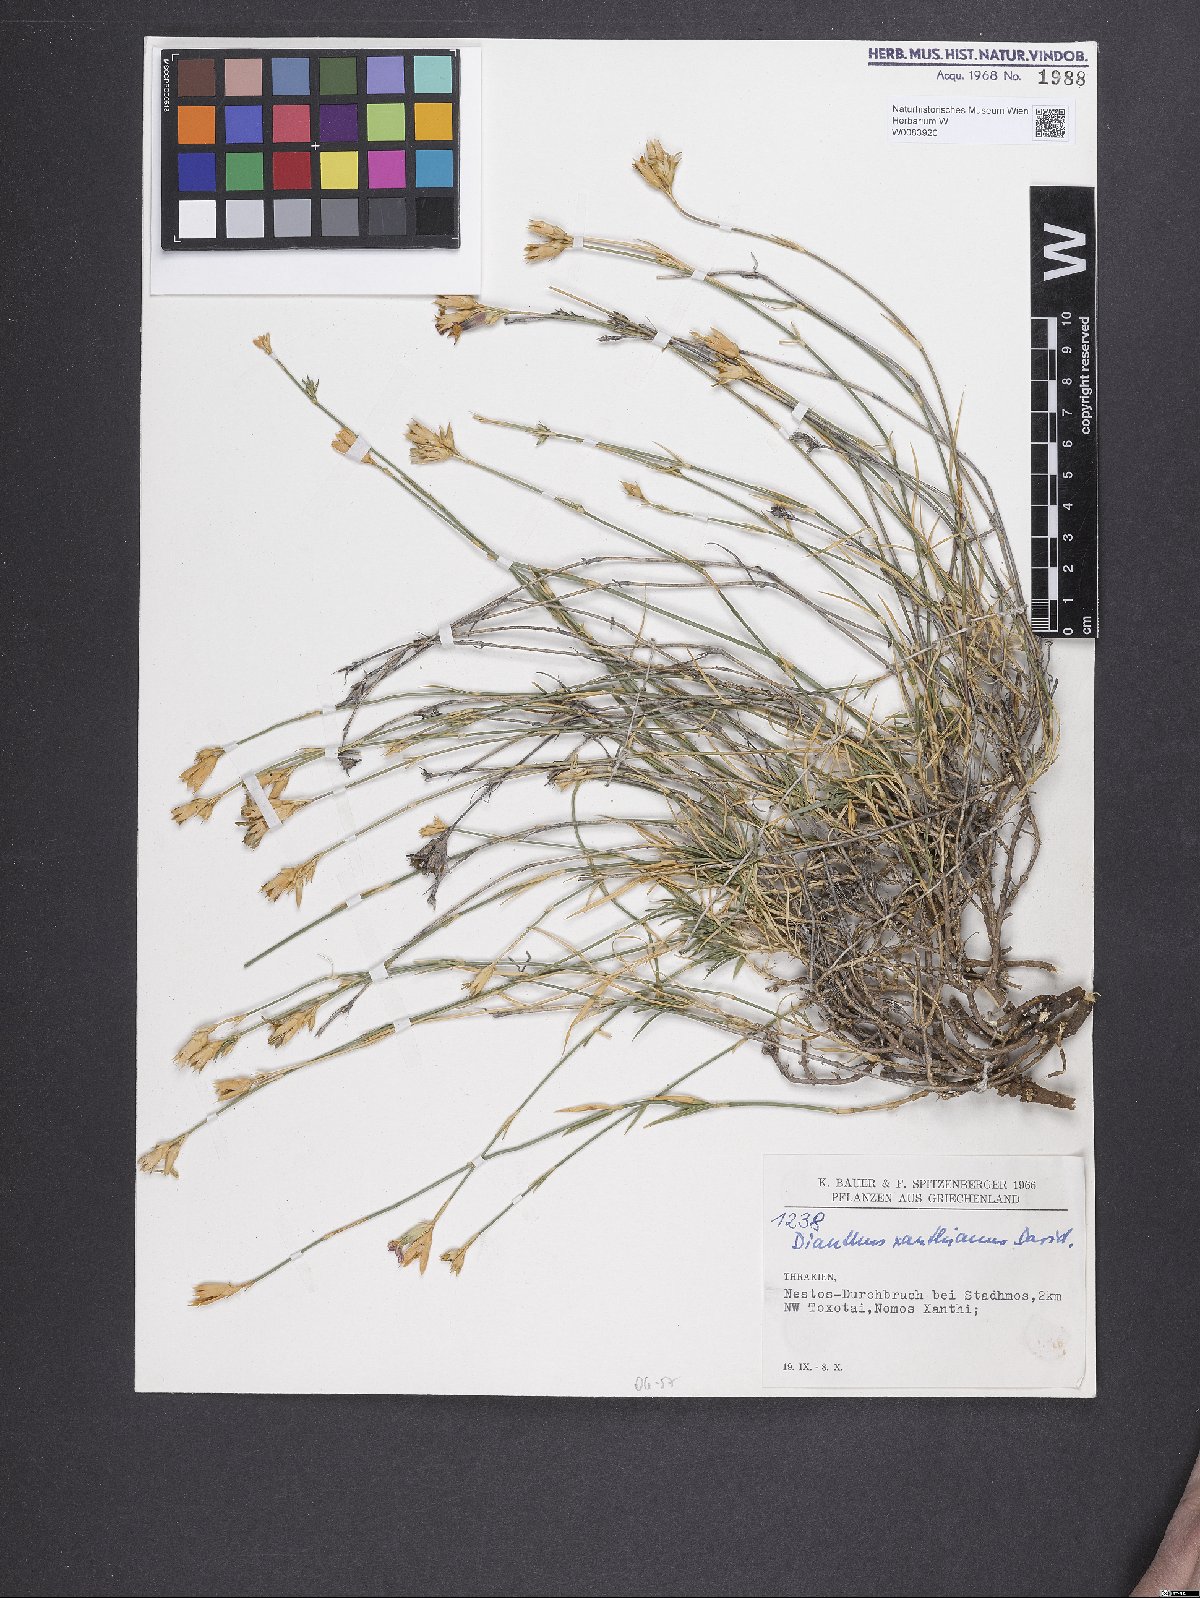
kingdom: Plantae
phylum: Tracheophyta
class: Magnoliopsida
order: Caryophyllales
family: Caryophyllaceae
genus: Dianthus
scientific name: Dianthus gracilis
